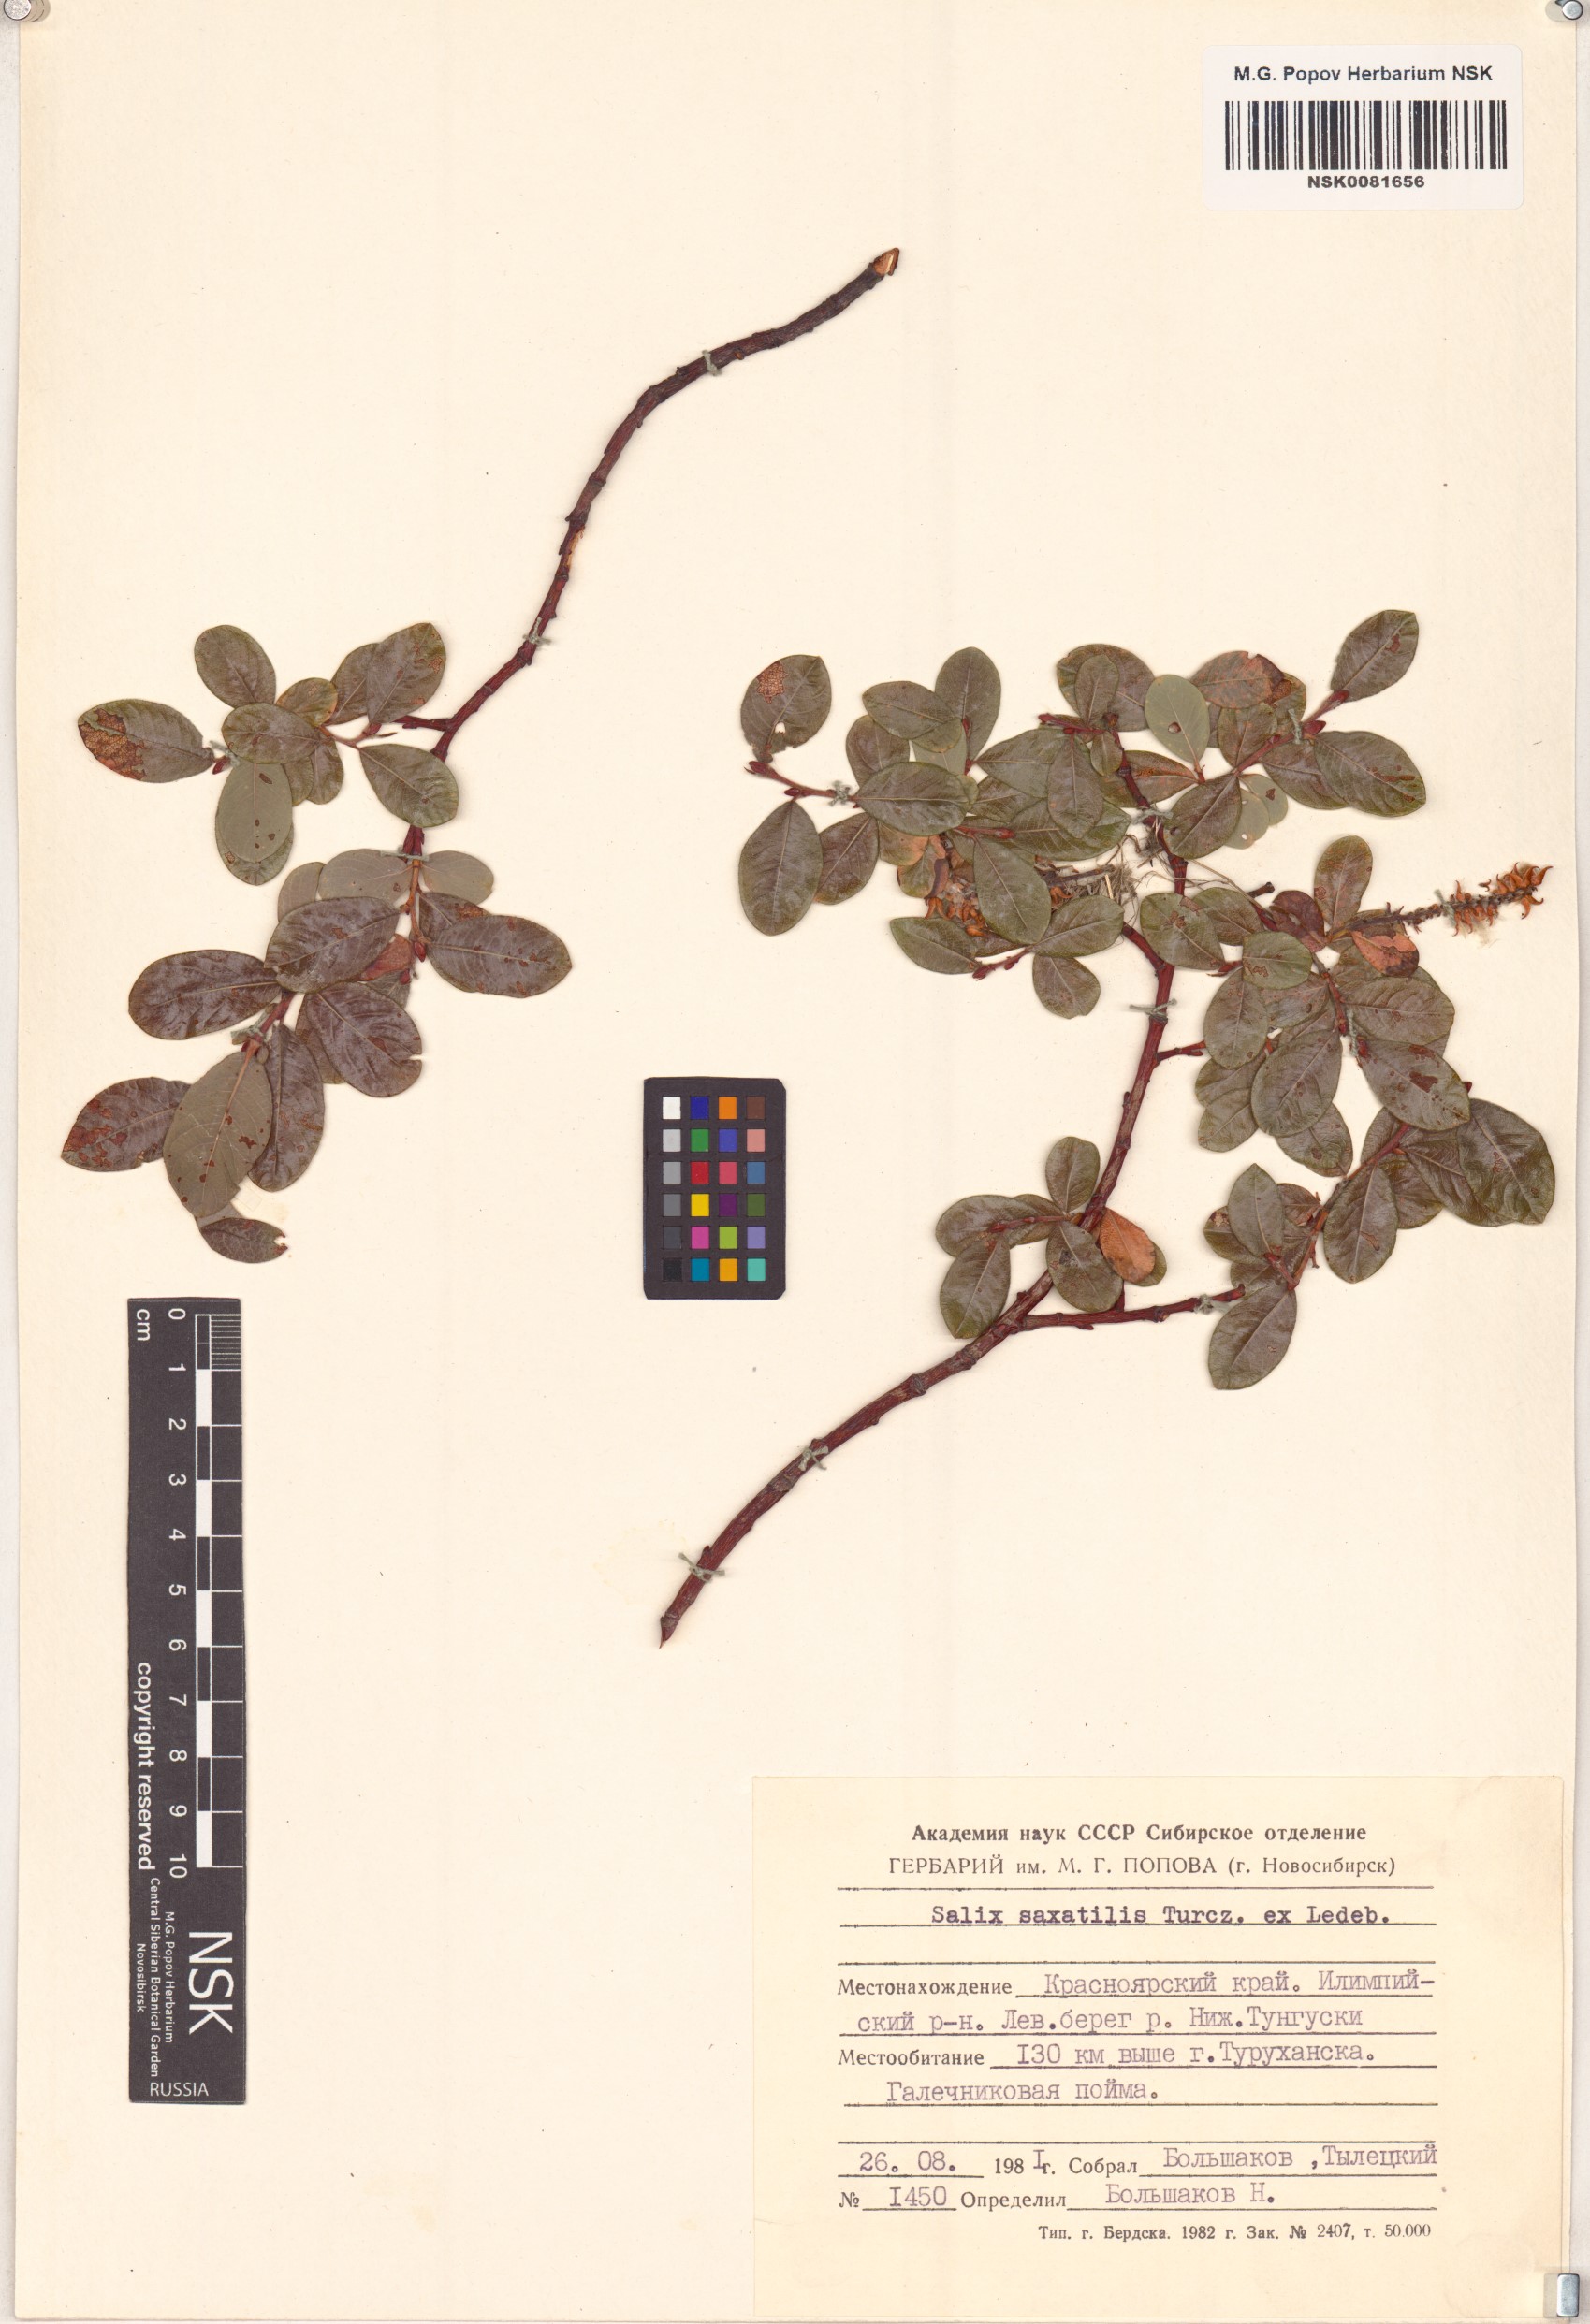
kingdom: Plantae
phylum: Tracheophyta
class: Magnoliopsida
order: Malpighiales
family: Salicaceae
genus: Salix
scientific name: Salix saxatilis
